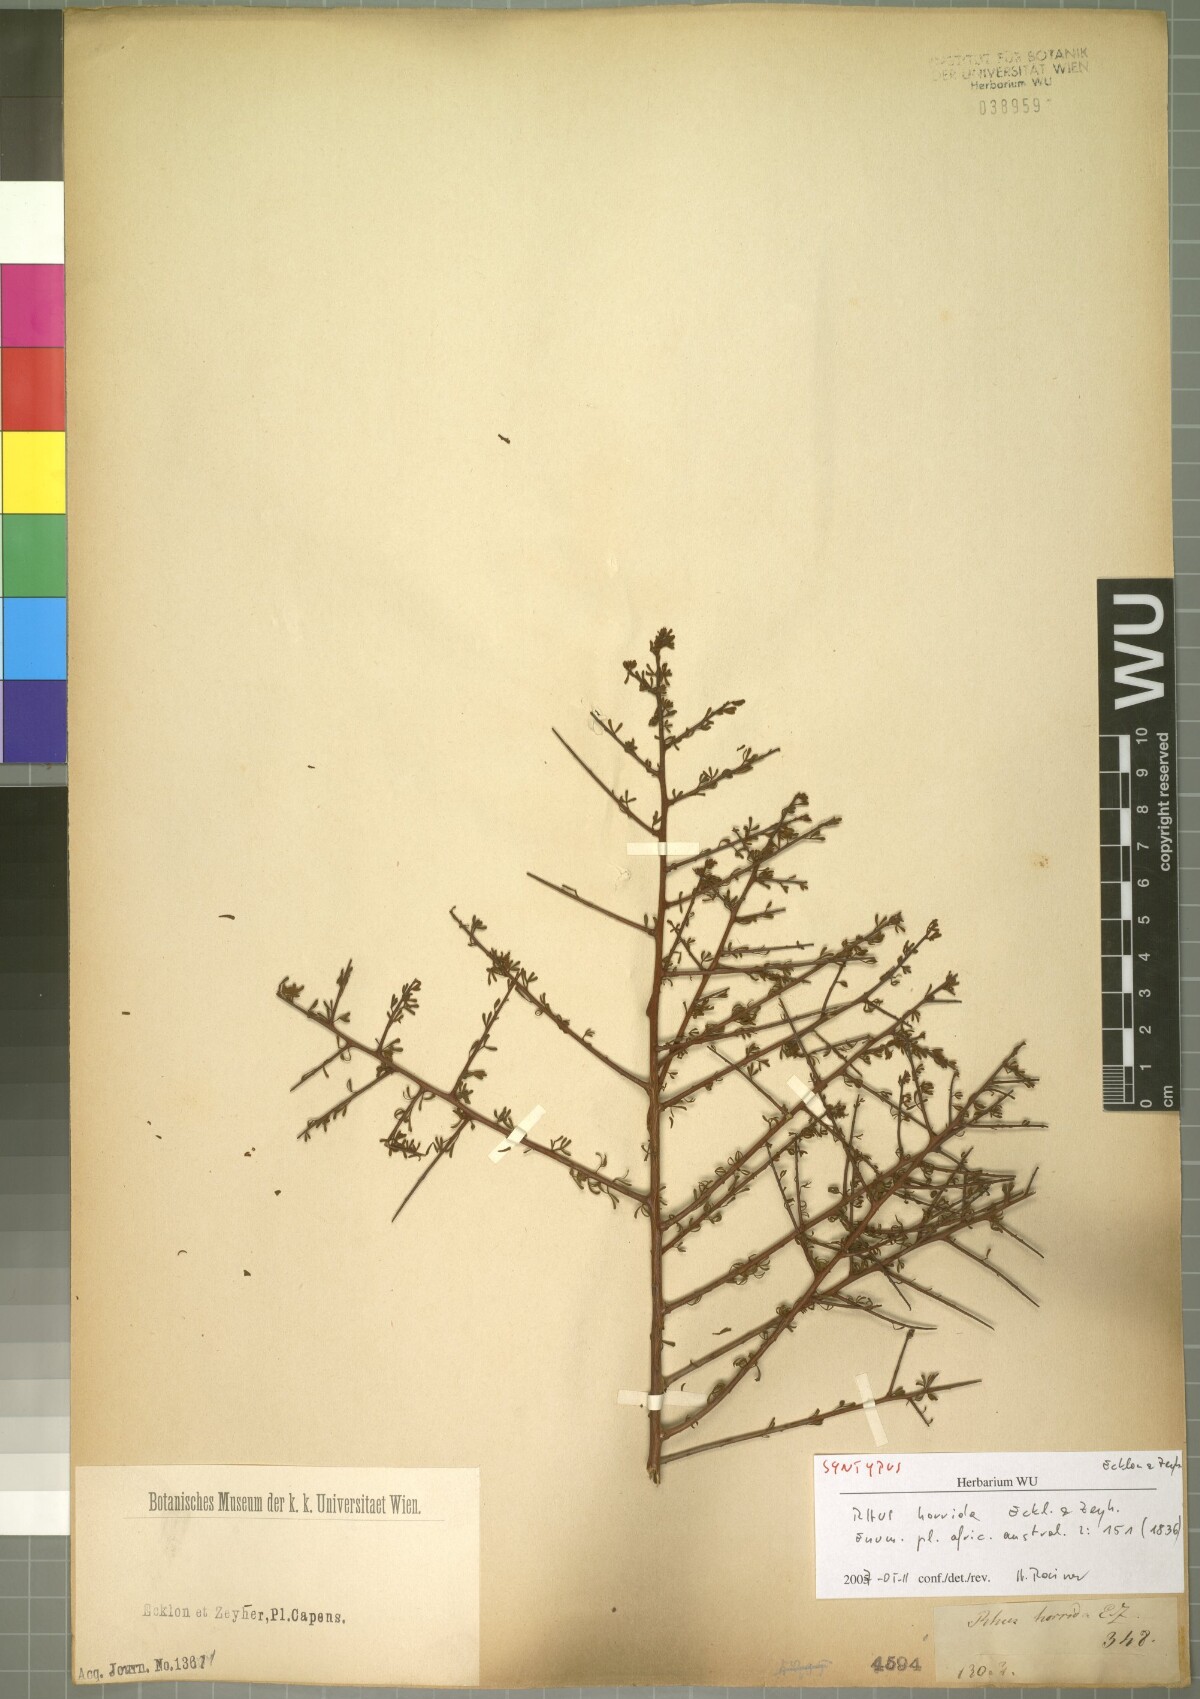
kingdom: Plantae
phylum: Tracheophyta
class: Magnoliopsida
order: Sapindales
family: Anacardiaceae
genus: Searsia
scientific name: Searsia horrida
